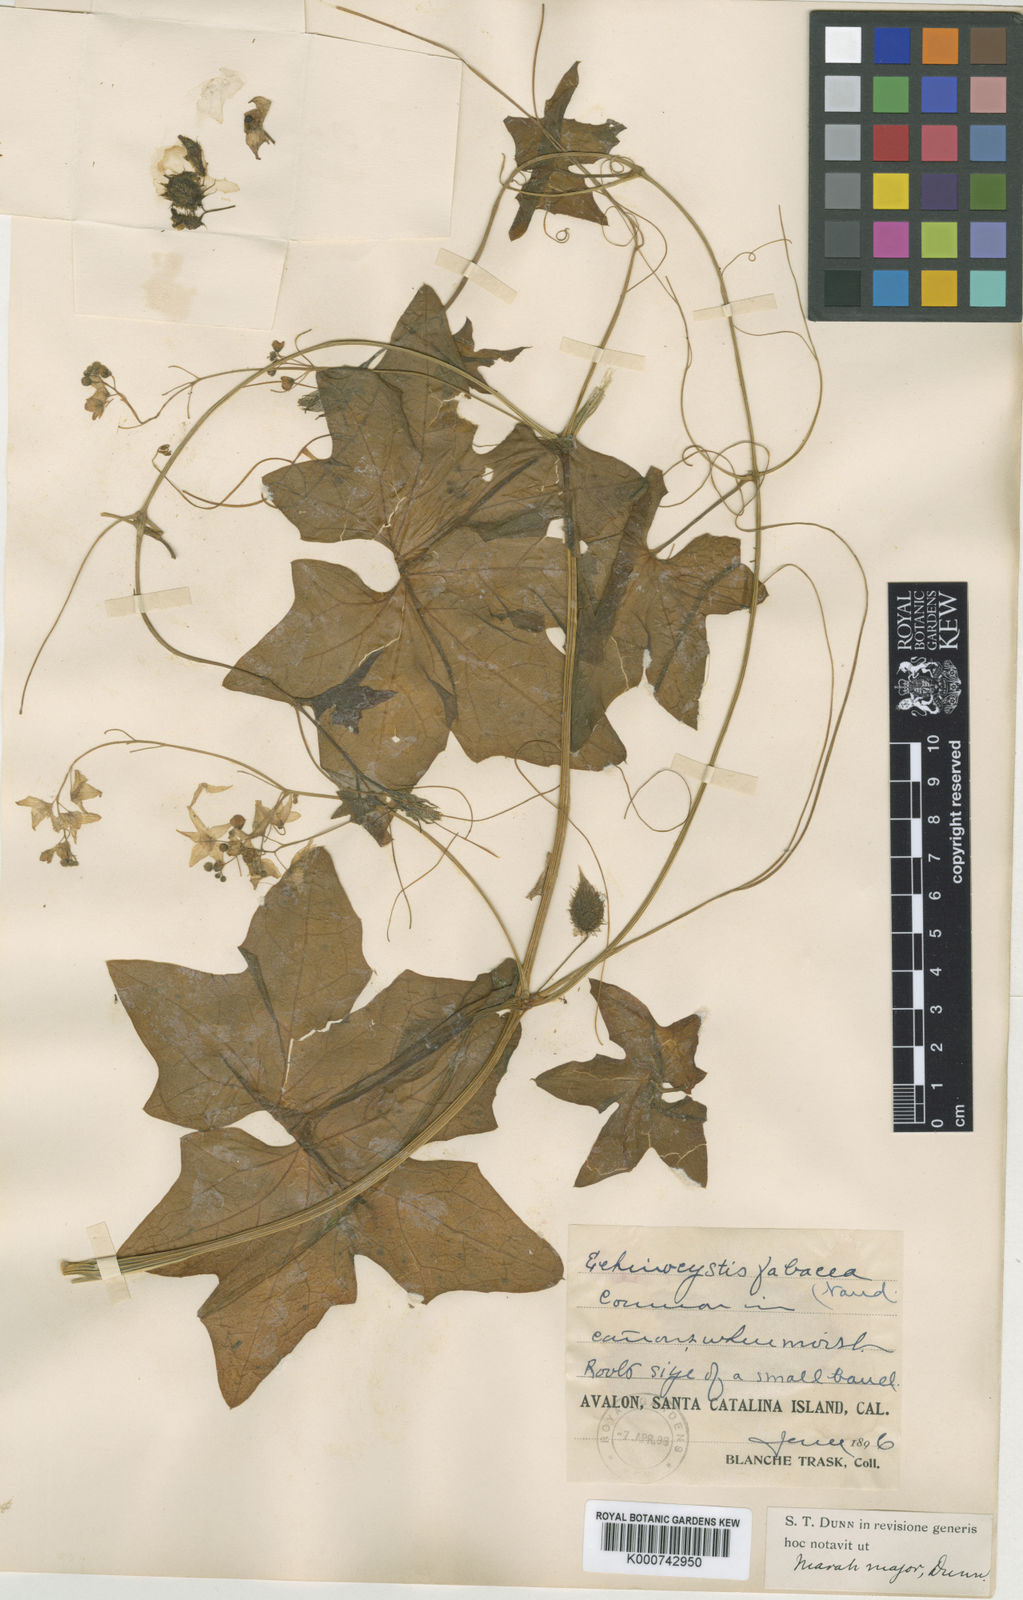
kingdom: Plantae
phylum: Tracheophyta
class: Magnoliopsida
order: Cucurbitales
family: Cucurbitaceae
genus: Marah
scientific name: Marah guadalupensis
